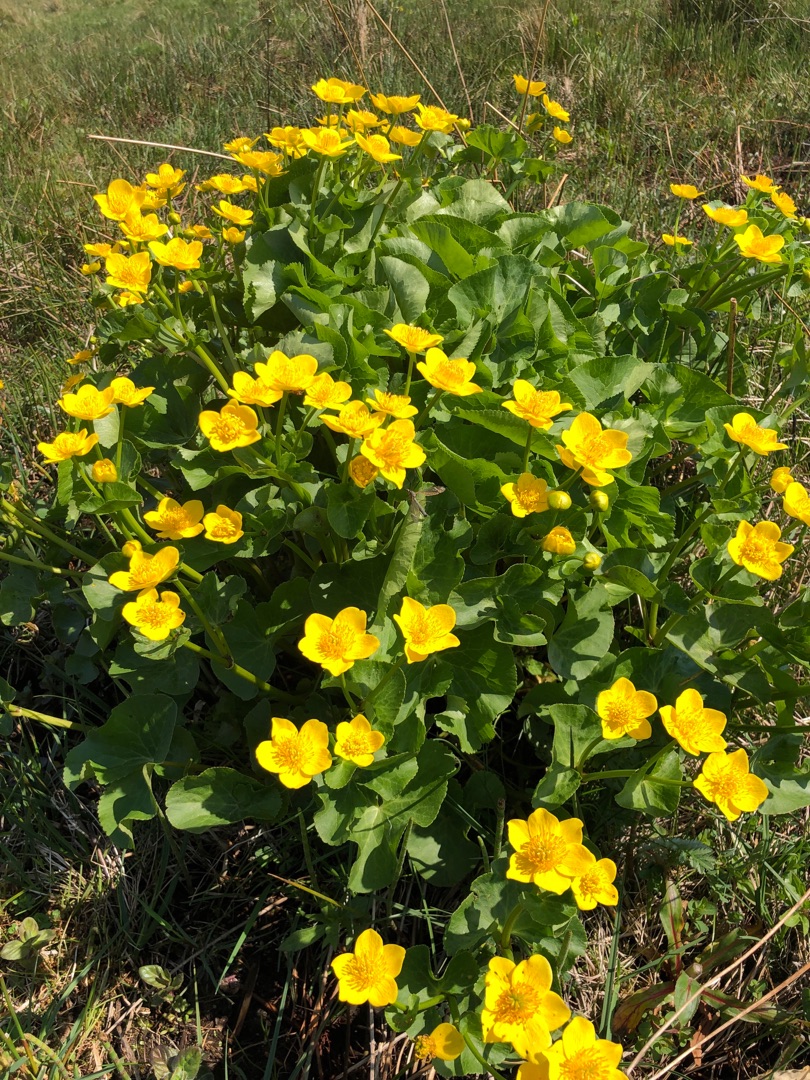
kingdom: Plantae
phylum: Tracheophyta
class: Magnoliopsida
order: Ranunculales
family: Ranunculaceae
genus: Caltha
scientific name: Caltha palustris
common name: Eng-kabbeleje
